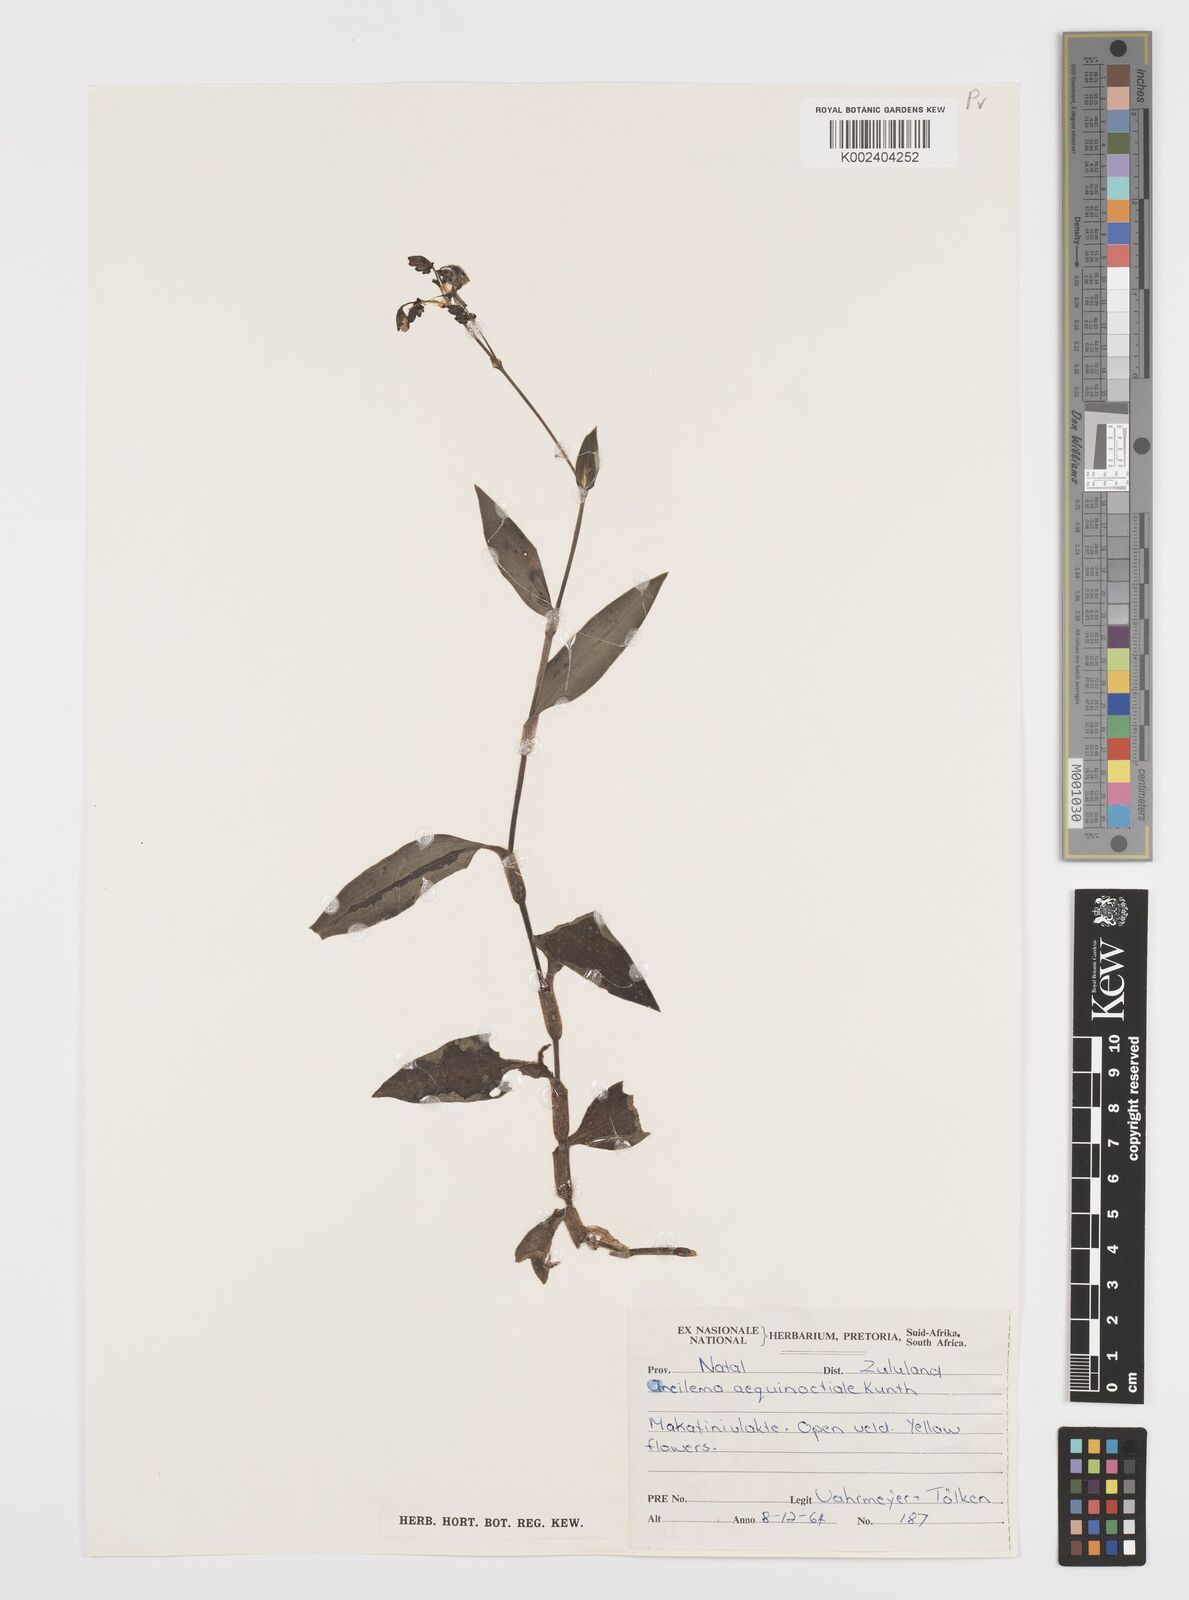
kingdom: Plantae
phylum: Tracheophyta
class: Liliopsida
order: Commelinales
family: Commelinaceae
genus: Aneilema
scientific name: Aneilema aequinoctiale
